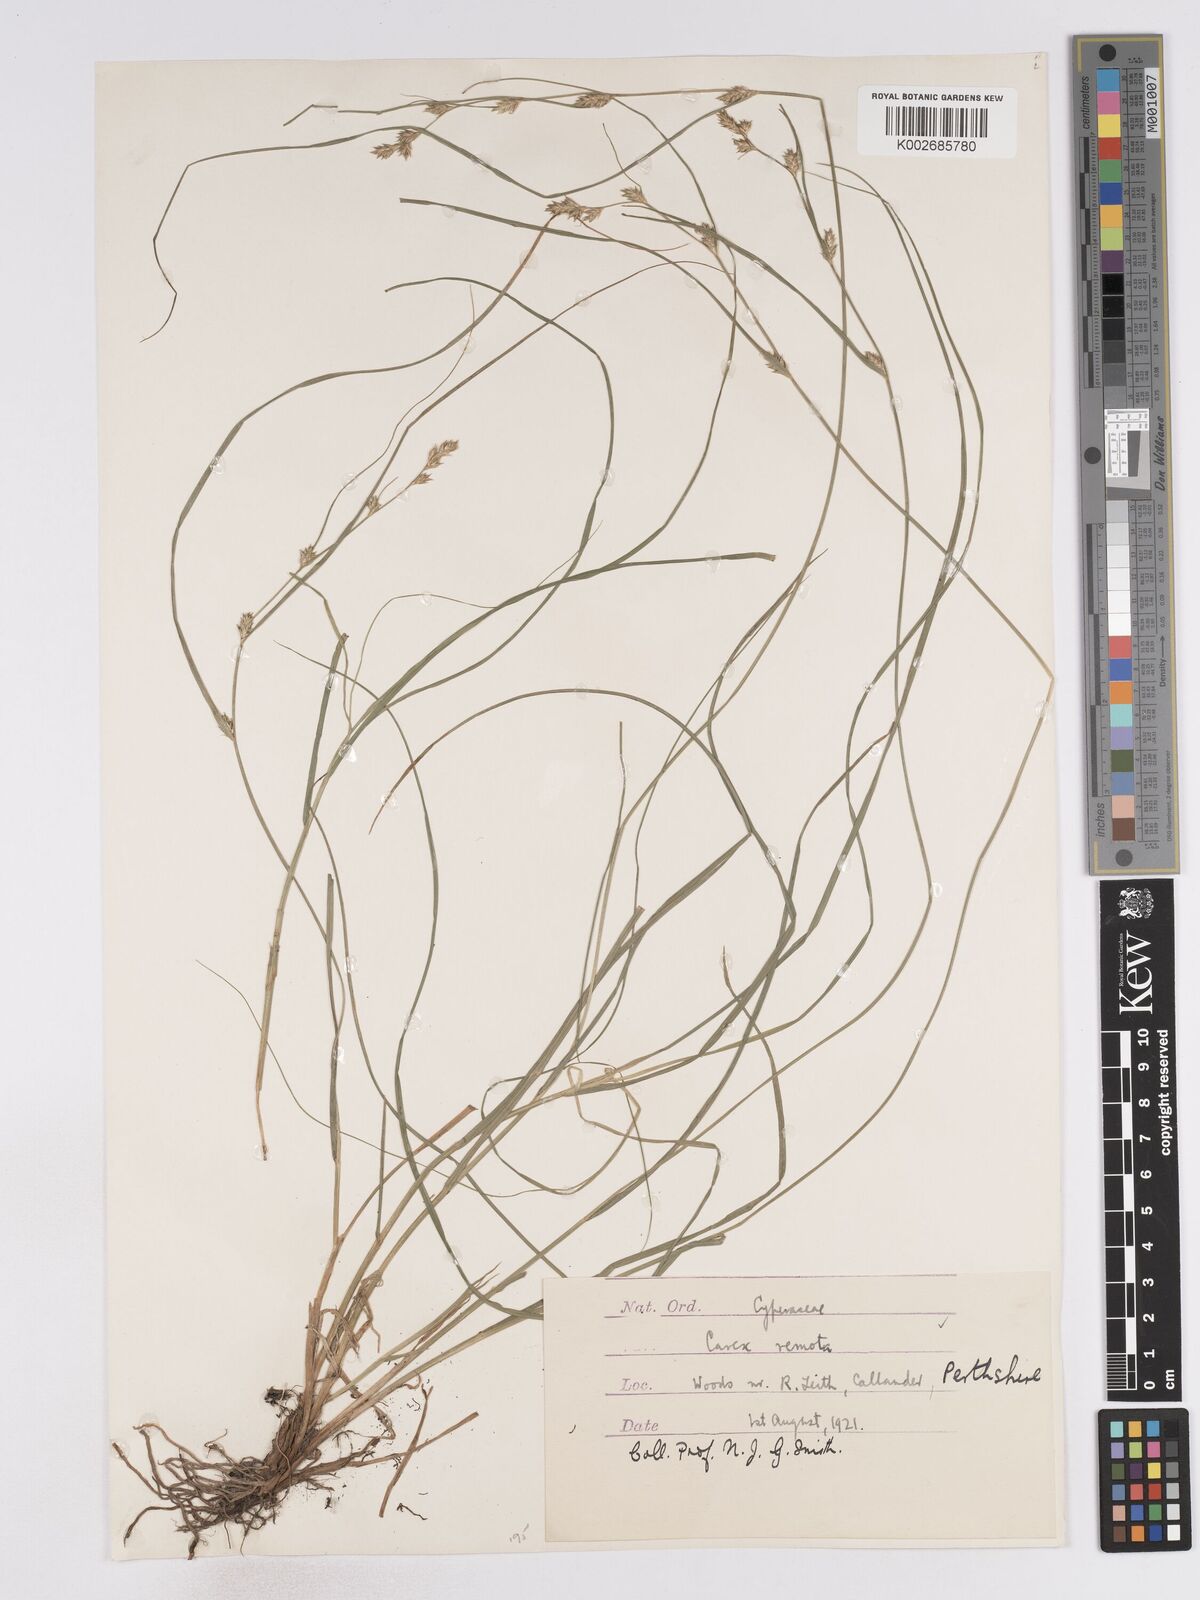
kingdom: Plantae
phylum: Tracheophyta
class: Liliopsida
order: Poales
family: Cyperaceae
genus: Carex
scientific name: Carex remota
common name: Remote sedge
